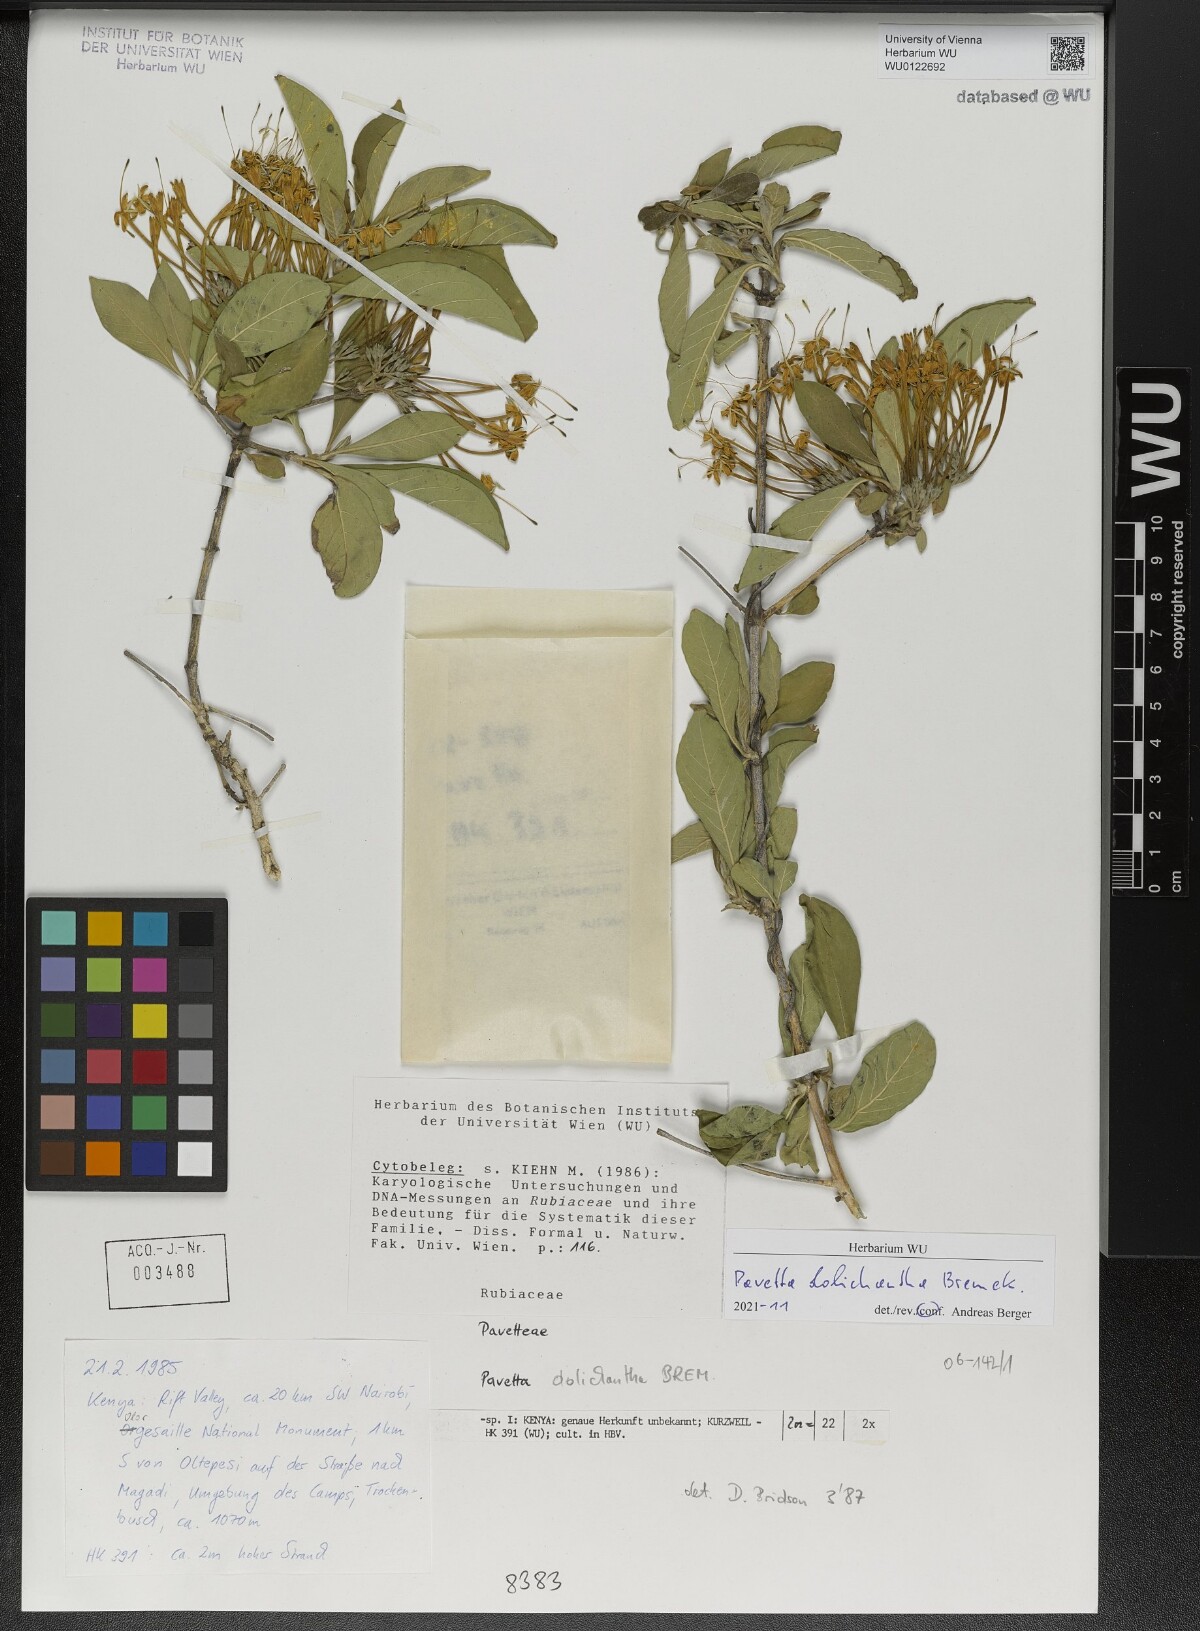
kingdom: Plantae
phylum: Tracheophyta
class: Magnoliopsida
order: Gentianales
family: Rubiaceae
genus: Pavetta
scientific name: Pavetta dolichantha
